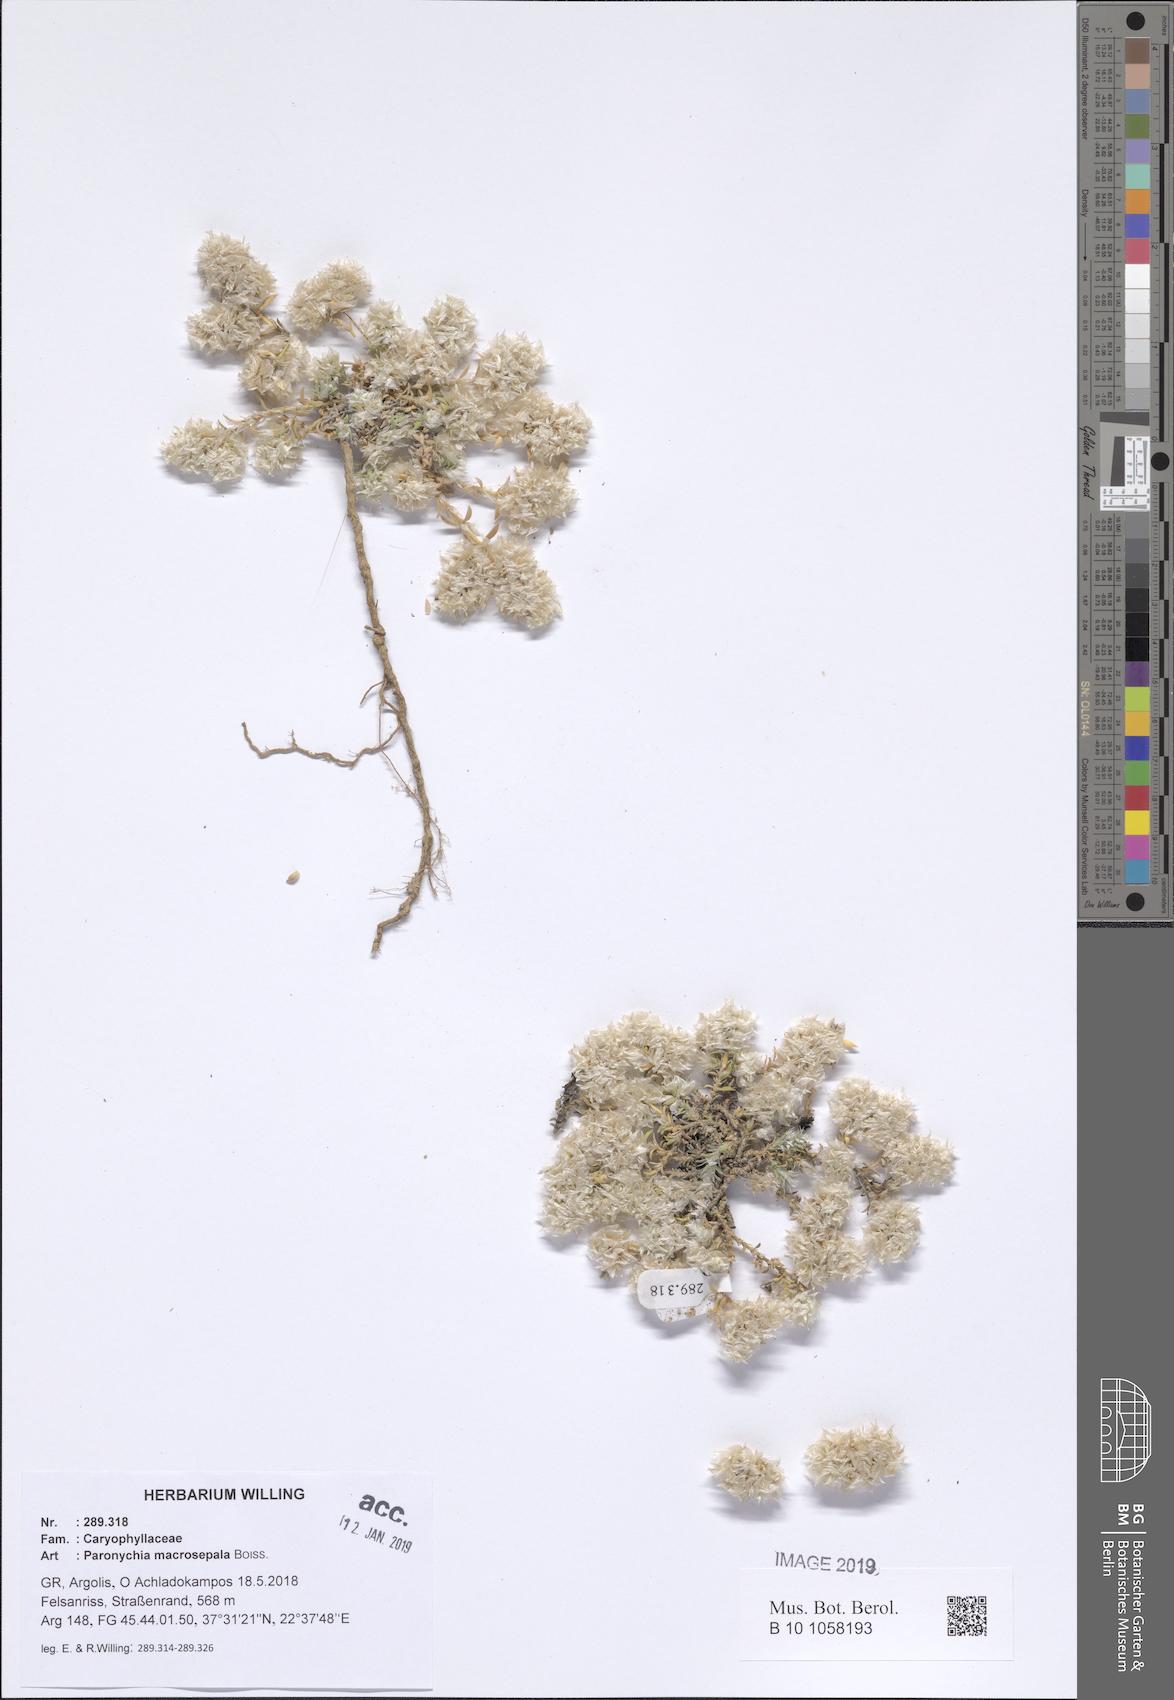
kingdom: Plantae
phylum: Tracheophyta
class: Magnoliopsida
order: Caryophyllales
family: Caryophyllaceae
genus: Paronychia
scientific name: Paronychia macrosepala
